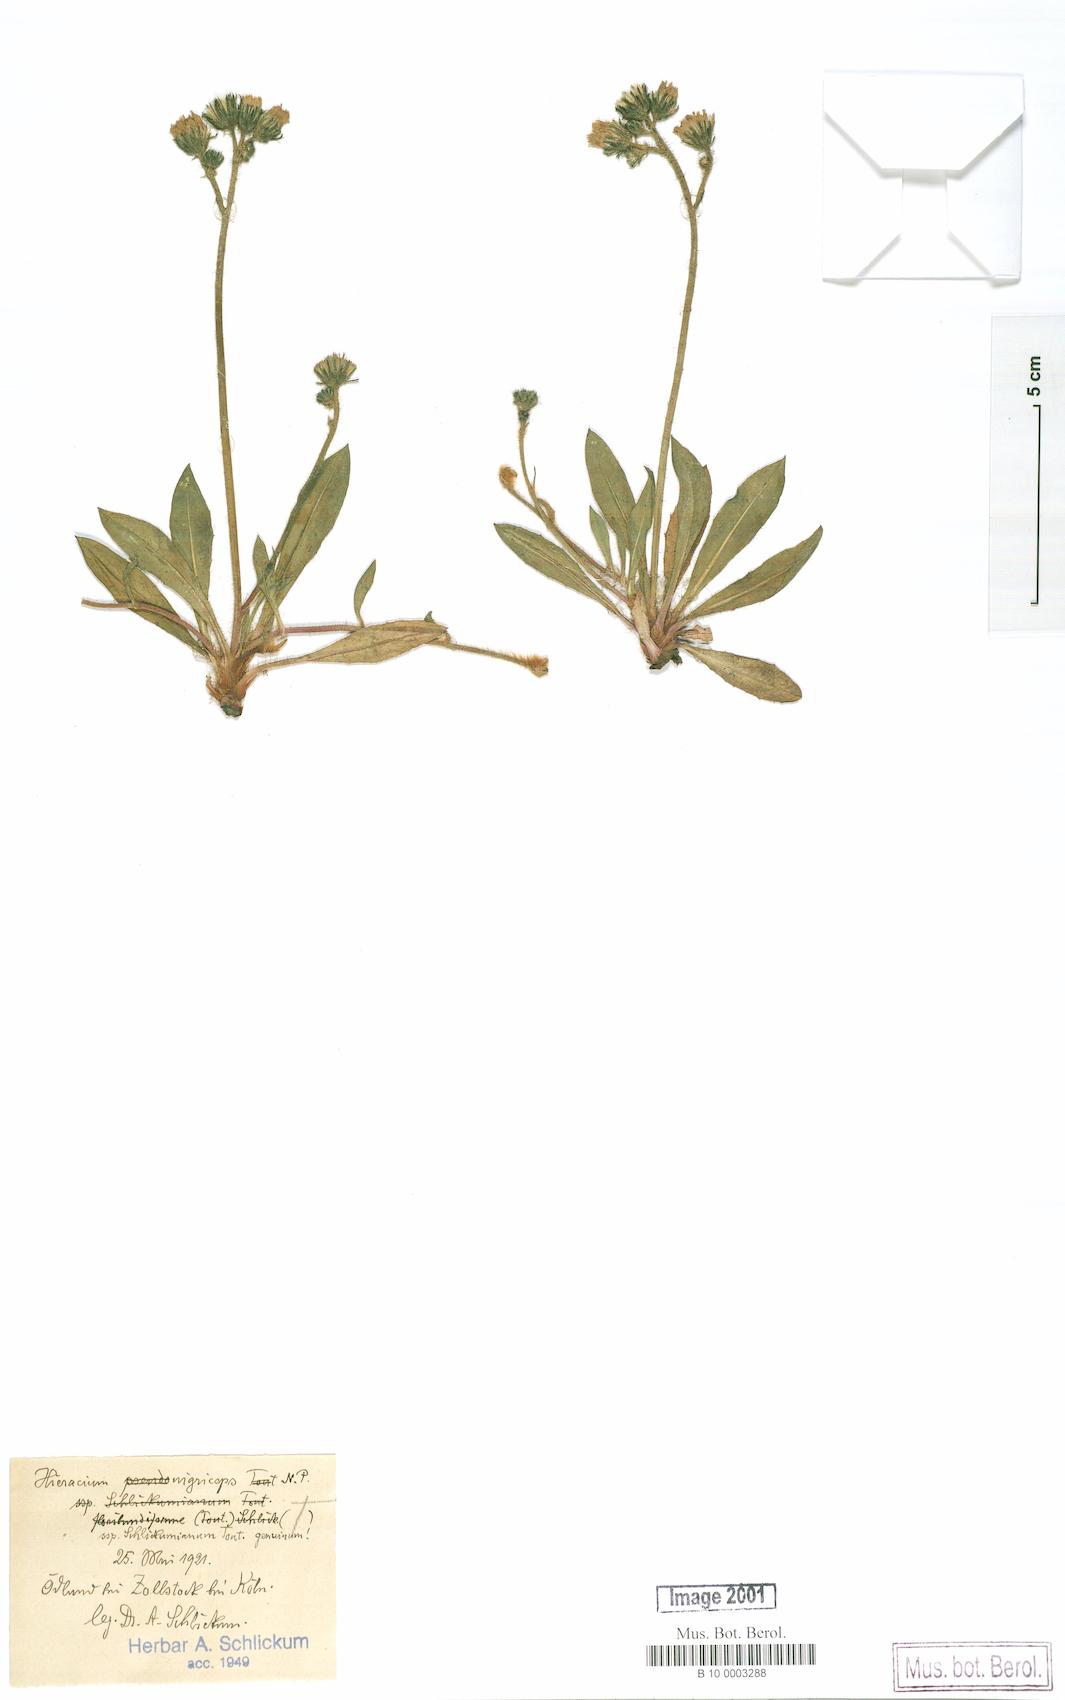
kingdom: Plantae
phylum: Tracheophyta
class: Magnoliopsida
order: Asterales
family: Asteraceae
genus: Pilosella
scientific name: Pilosella iserana
